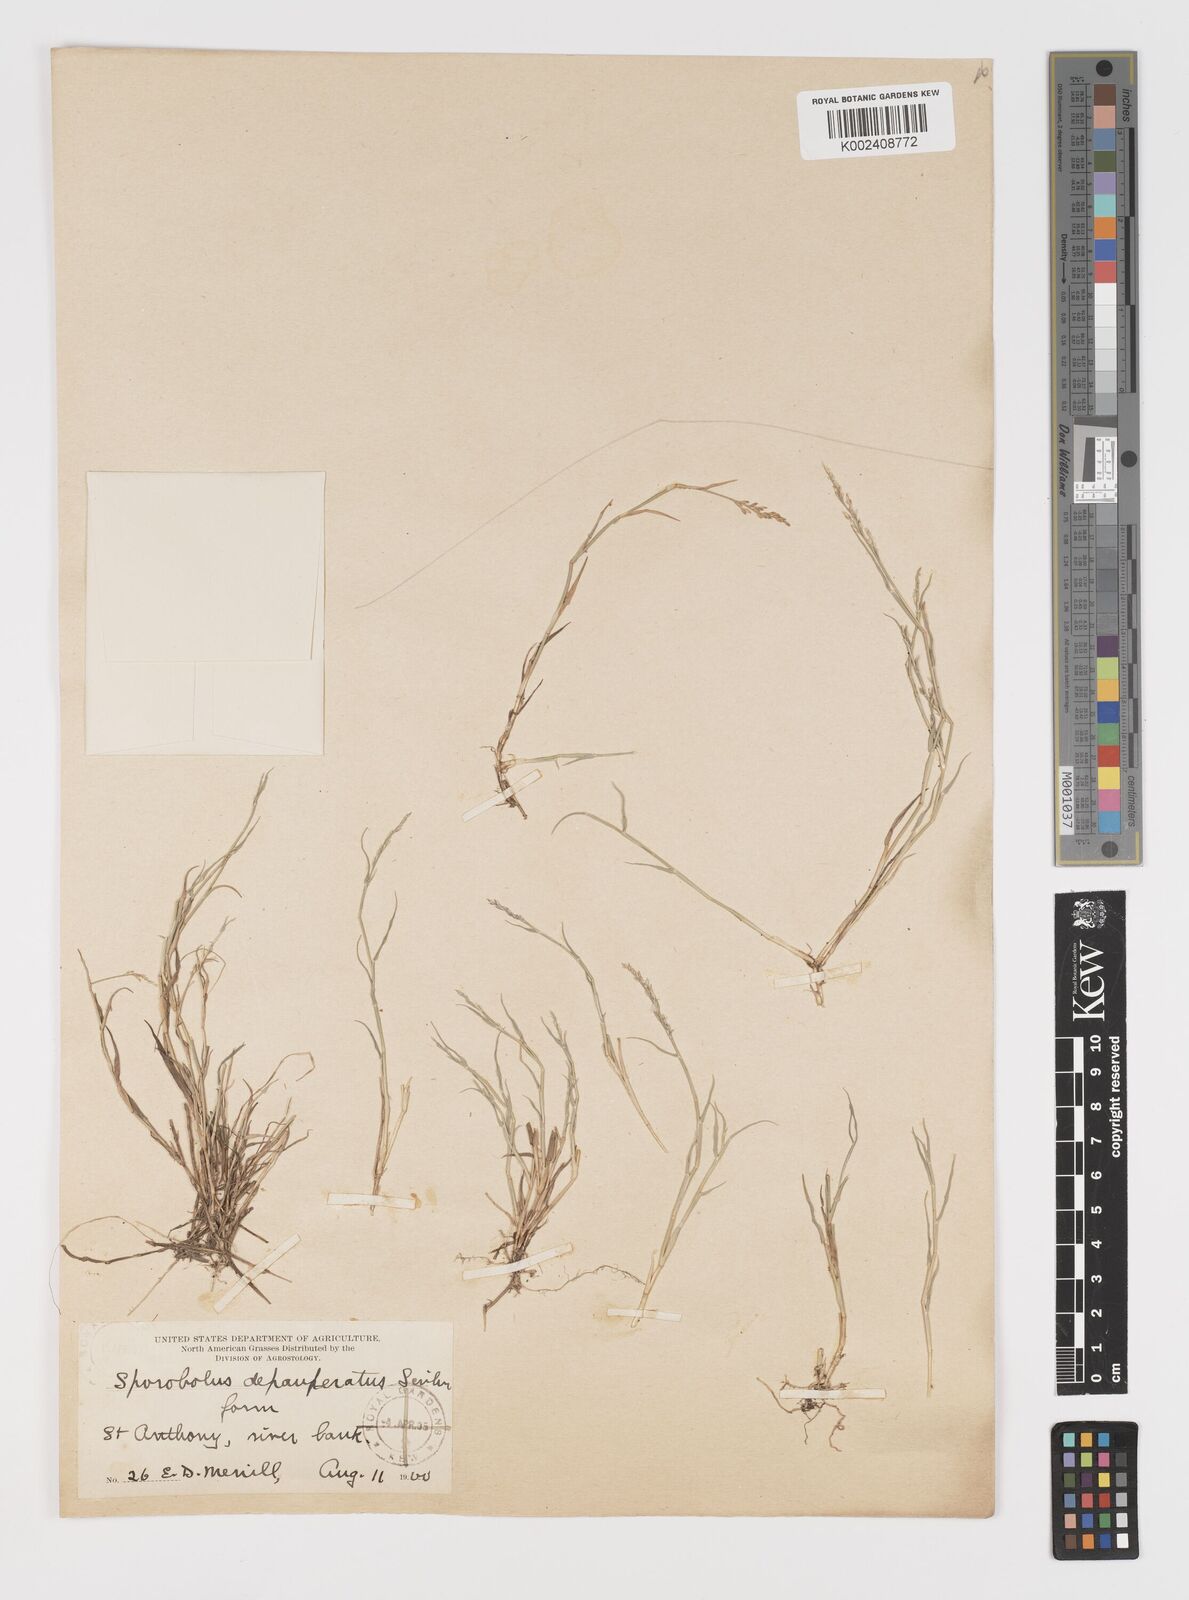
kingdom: Plantae
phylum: Tracheophyta
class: Liliopsida
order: Poales
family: Poaceae
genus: Muhlenbergia
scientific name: Muhlenbergia richardsonis
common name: Mat muhly
